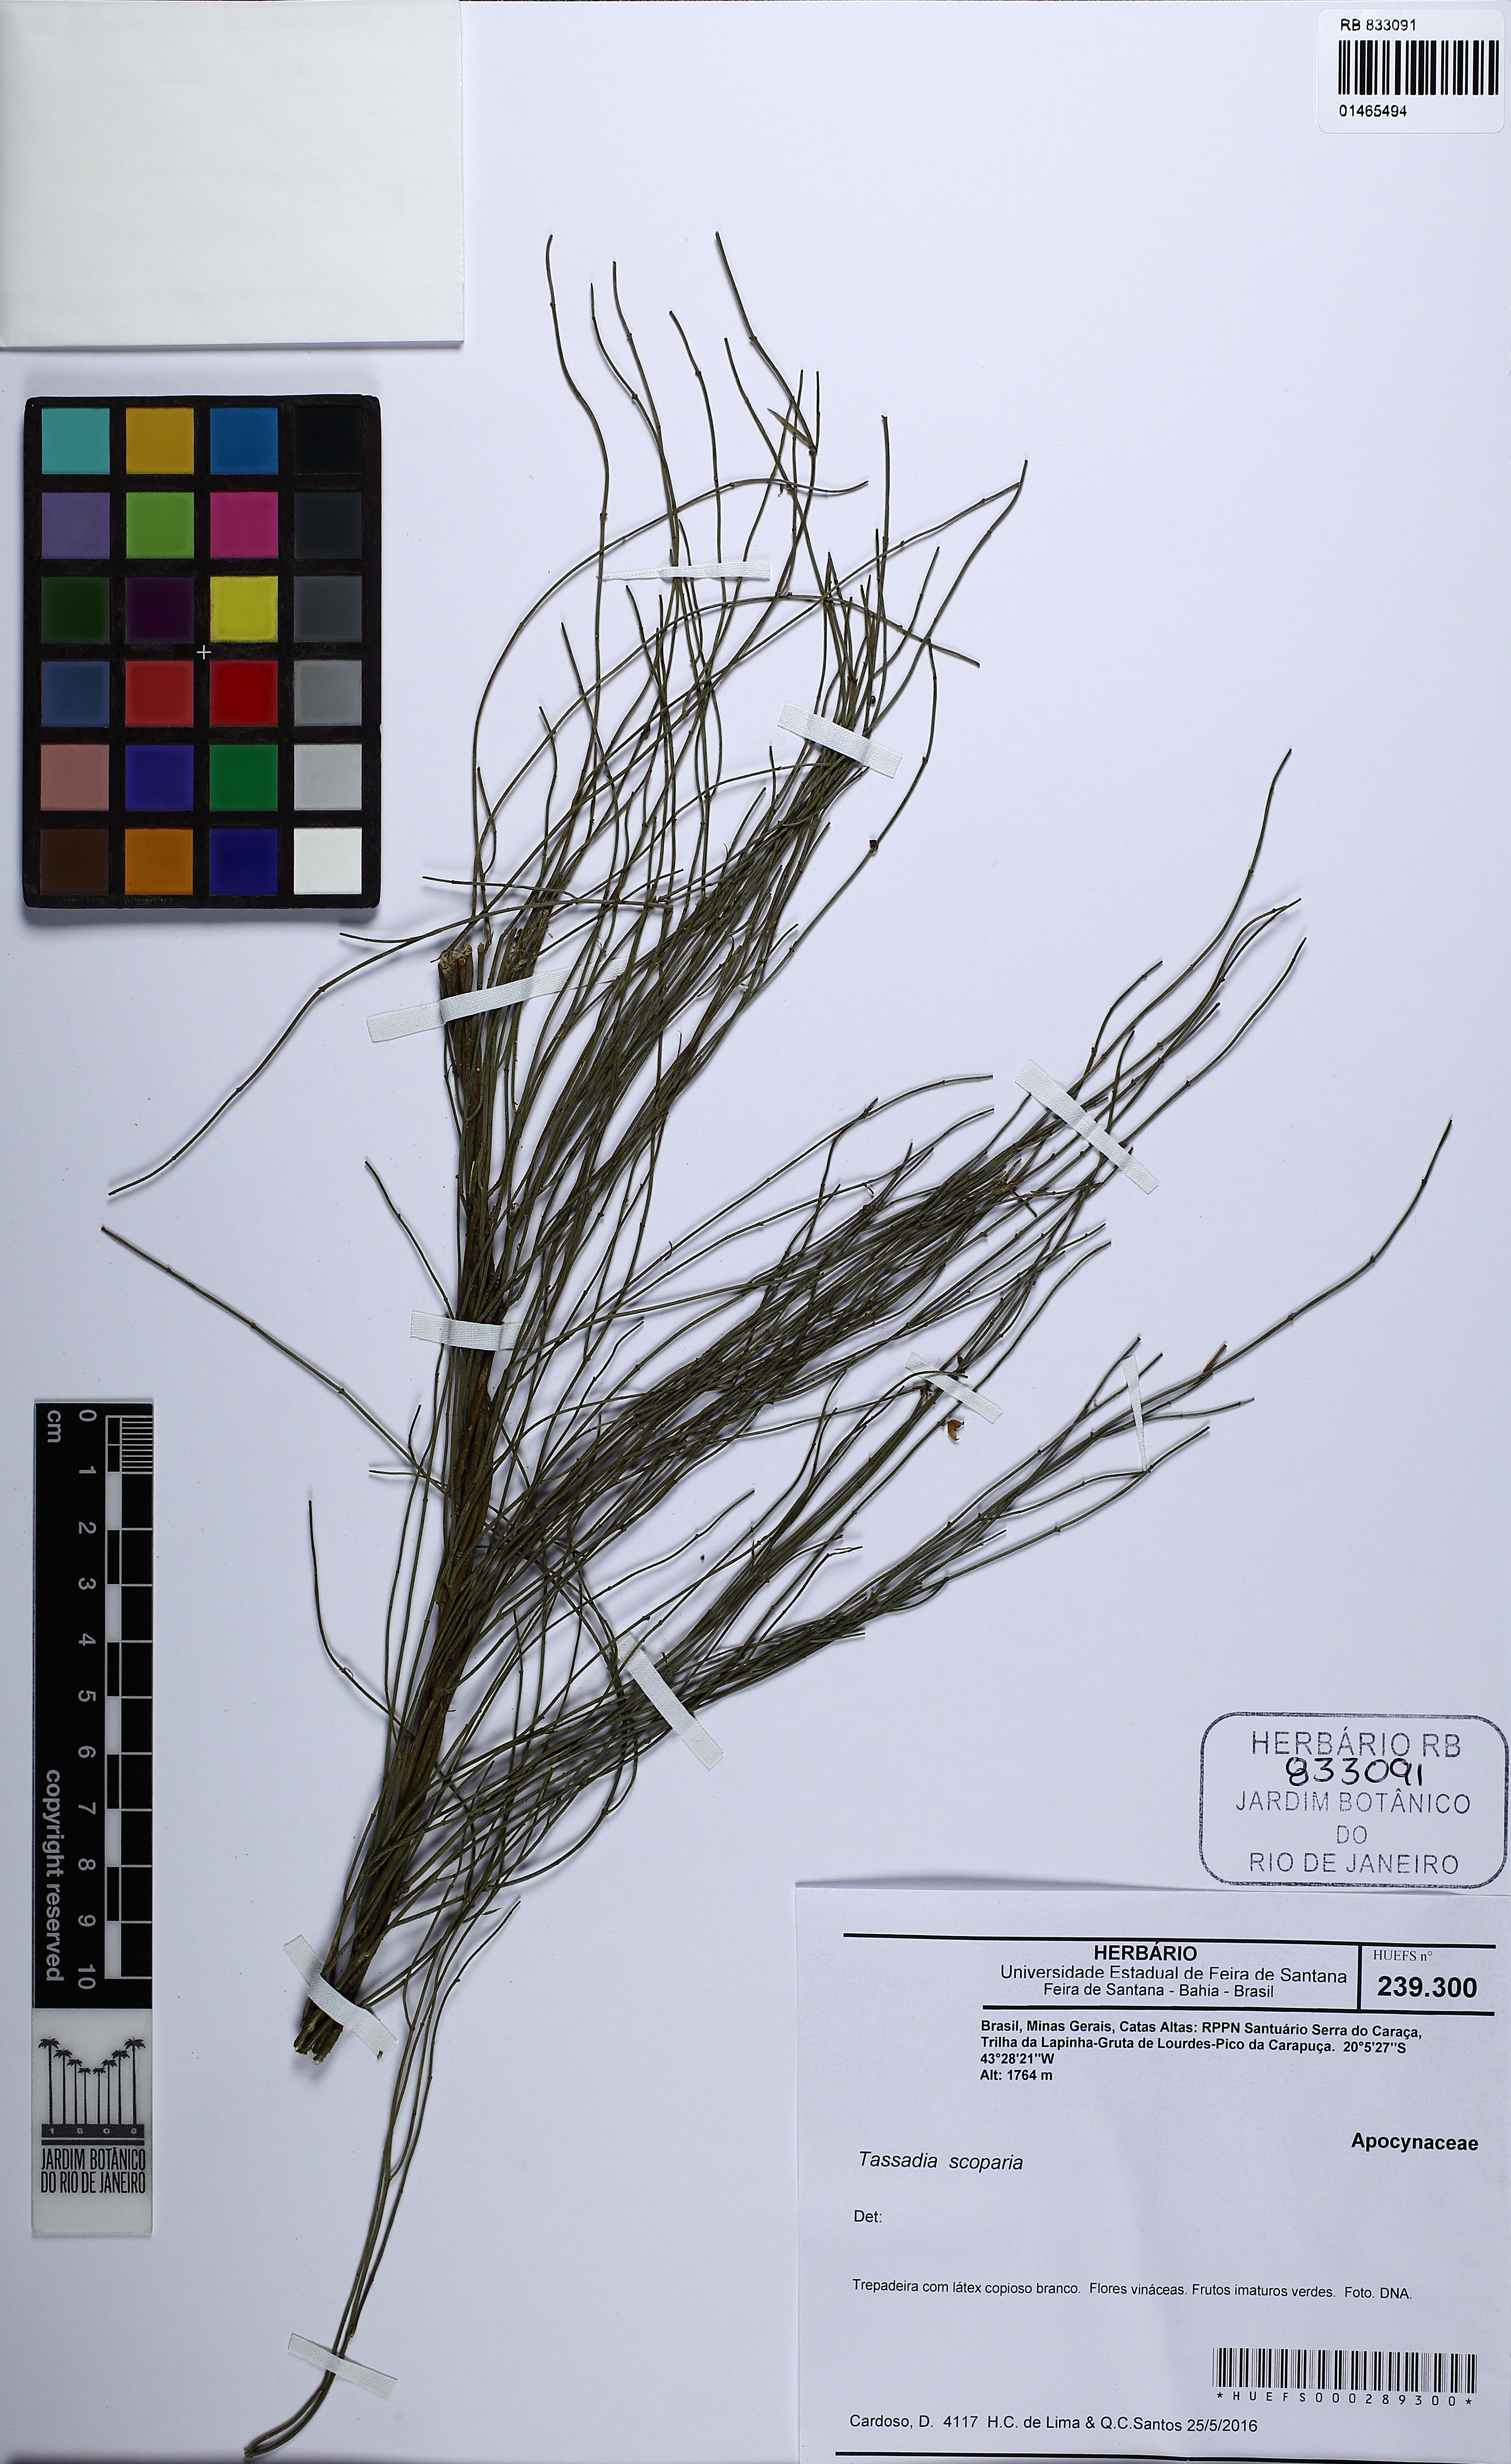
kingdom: Plantae
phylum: Tracheophyta
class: Magnoliopsida
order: Gentianales
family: Apocynaceae
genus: Tassadia
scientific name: Tassadia
